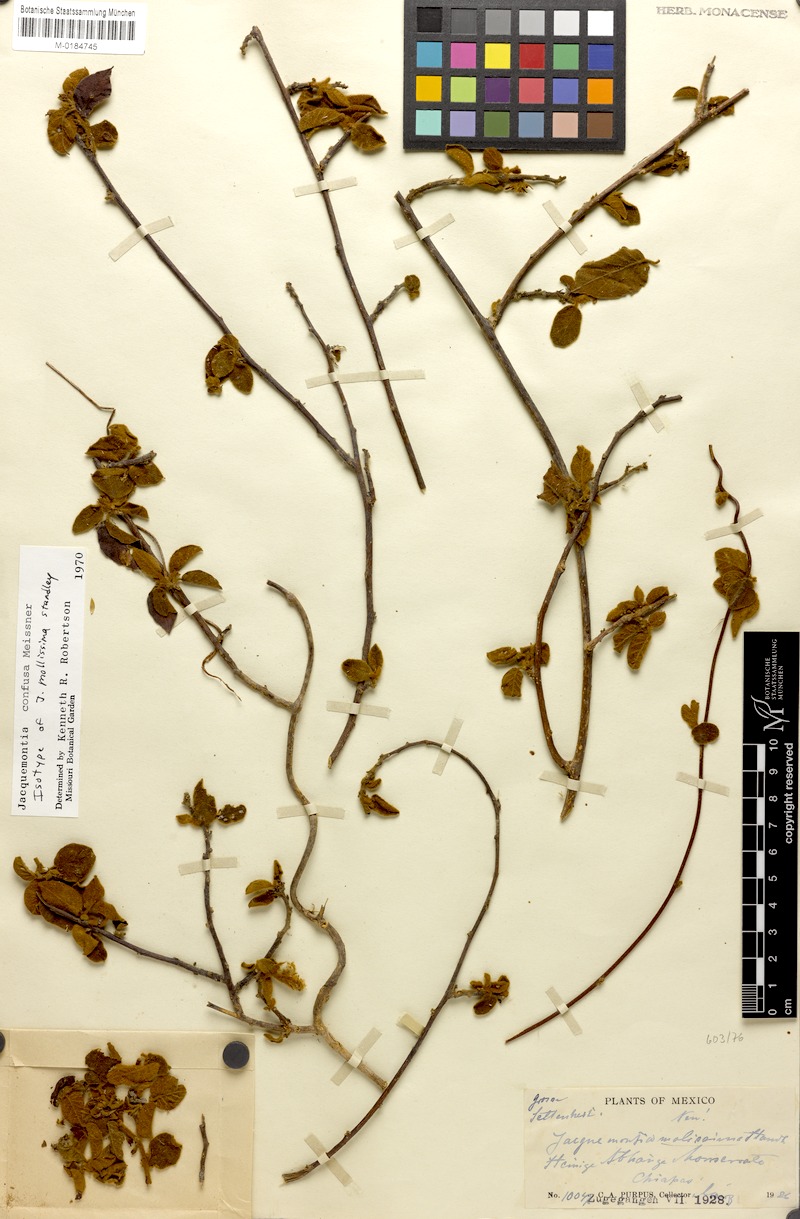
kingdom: Plantae
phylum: Tracheophyta
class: Magnoliopsida
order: Solanales
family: Convolvulaceae
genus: Jacquemontia
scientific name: Jacquemontia nodiflora
